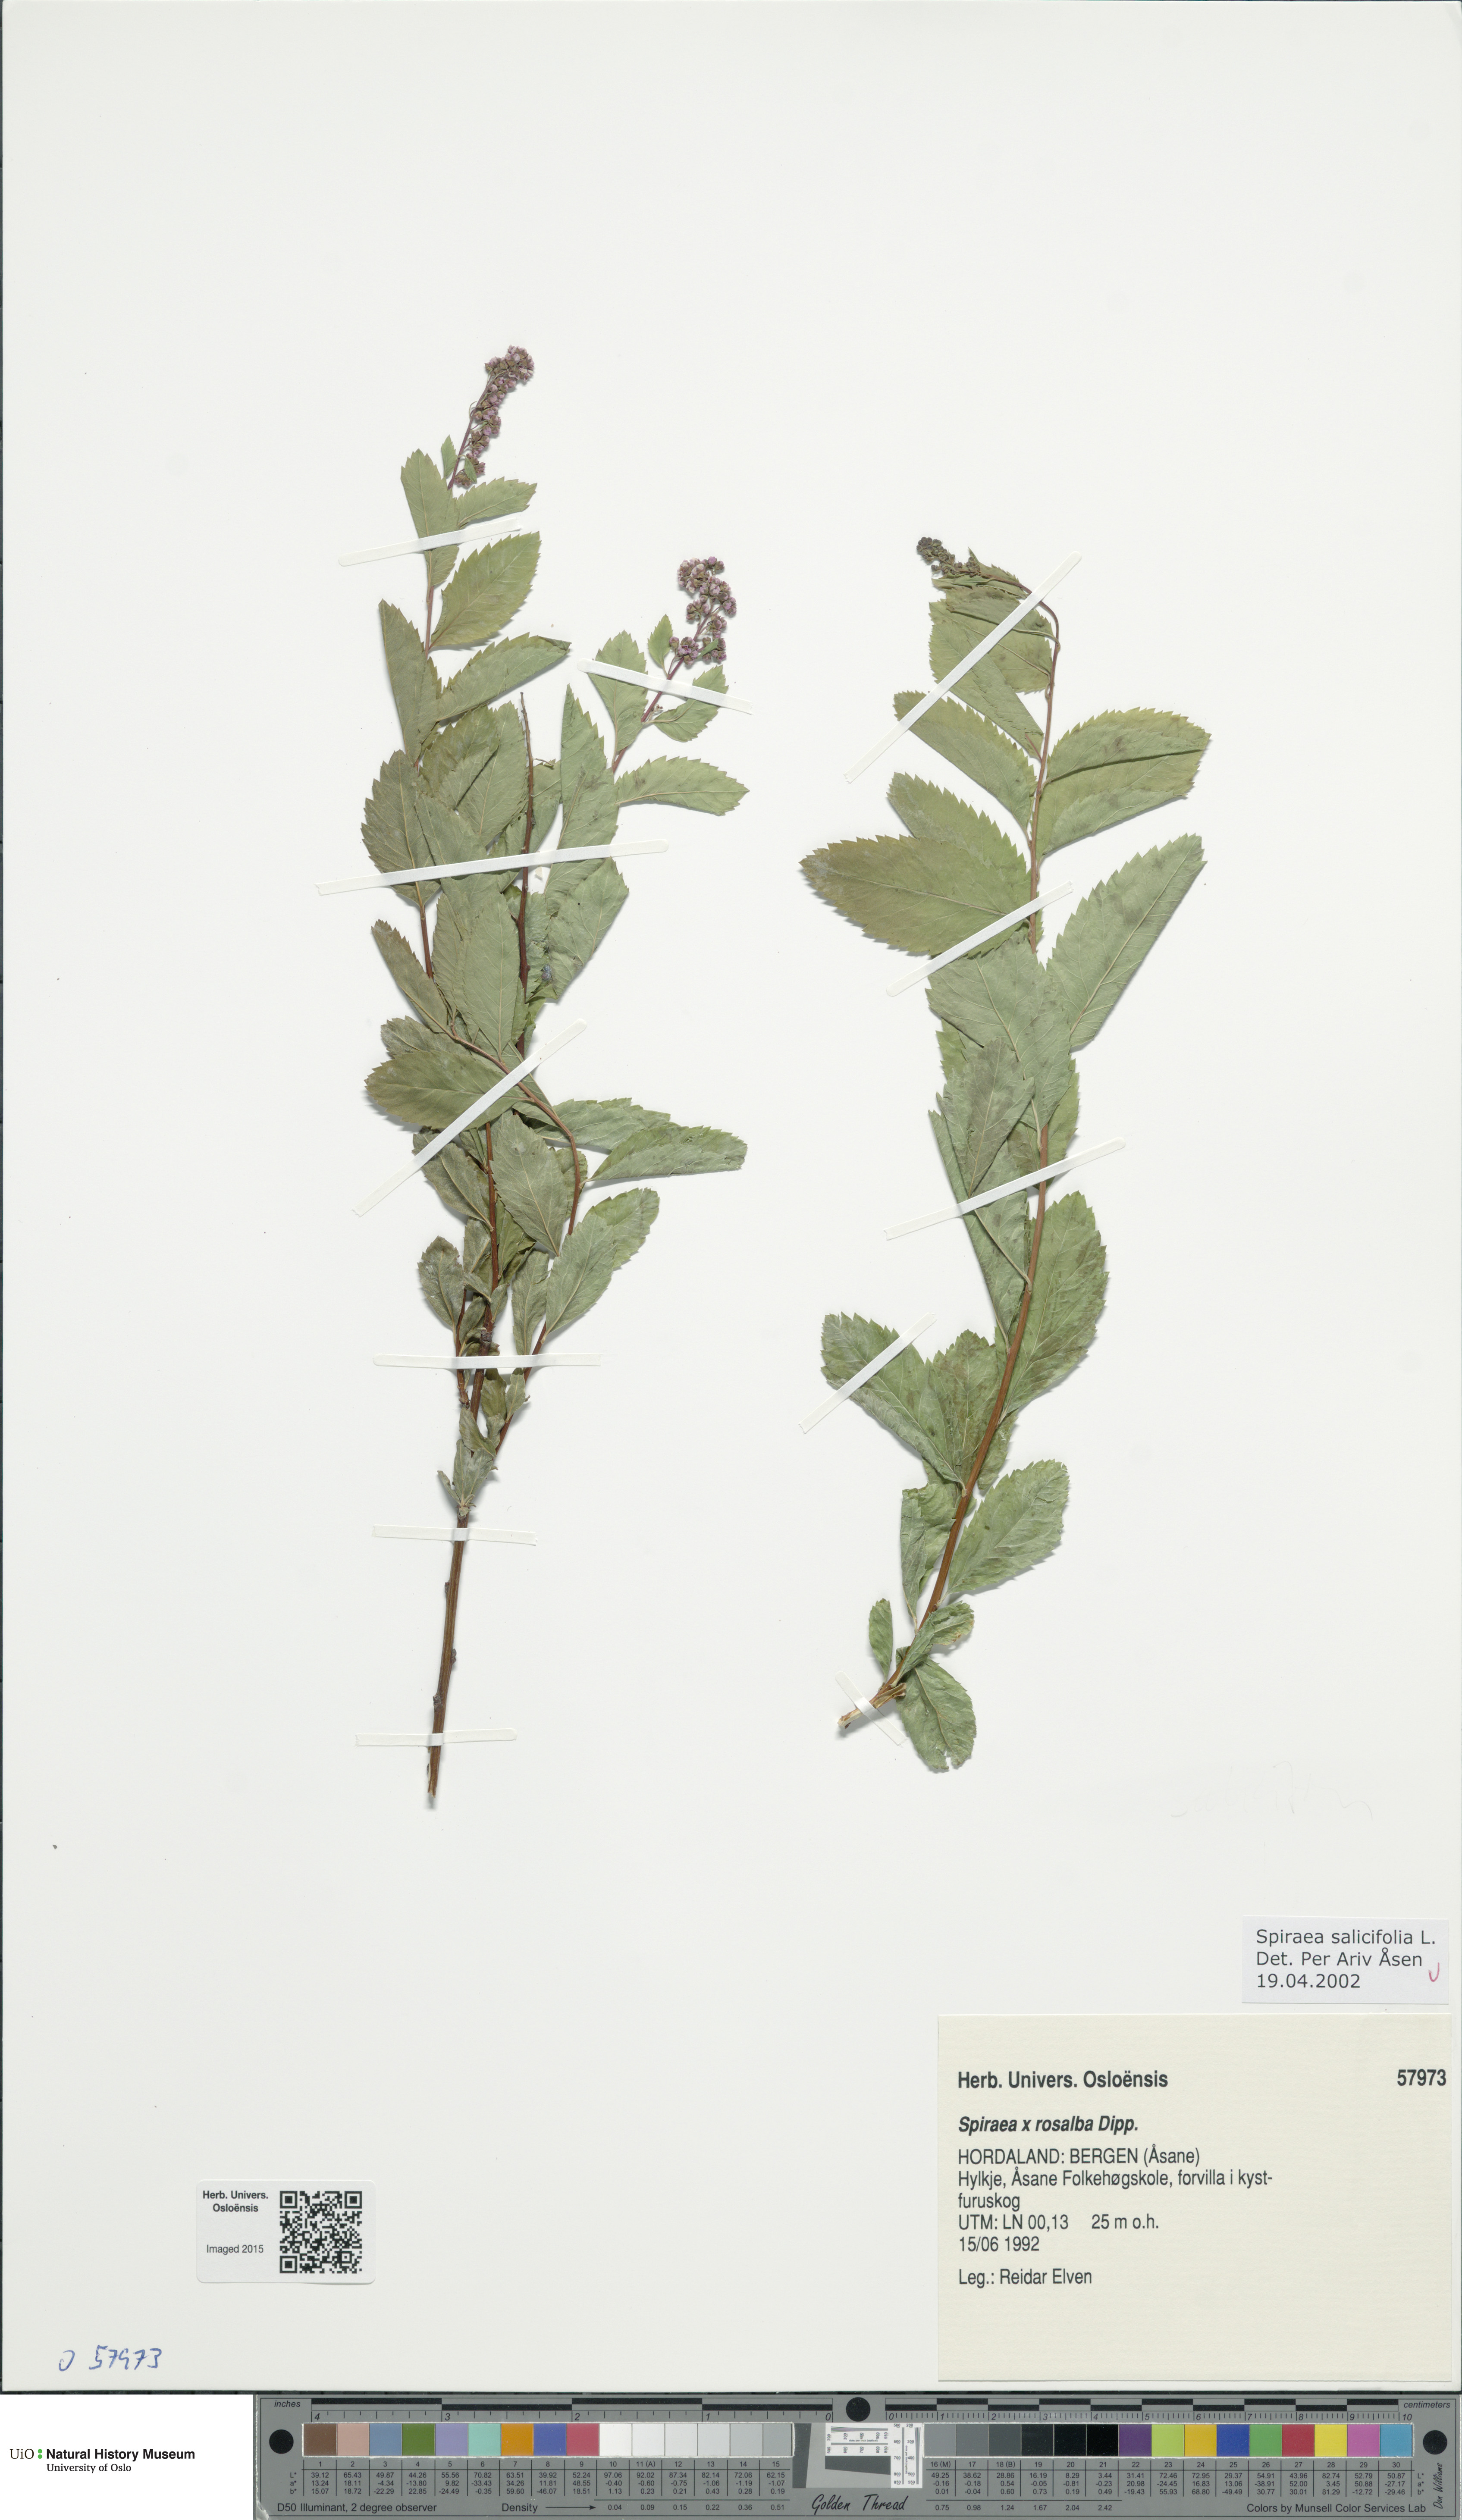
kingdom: Plantae
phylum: Tracheophyta
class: Magnoliopsida
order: Rosales
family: Rosaceae
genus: Spiraea
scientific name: Spiraea salicifolia
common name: Bridewort
